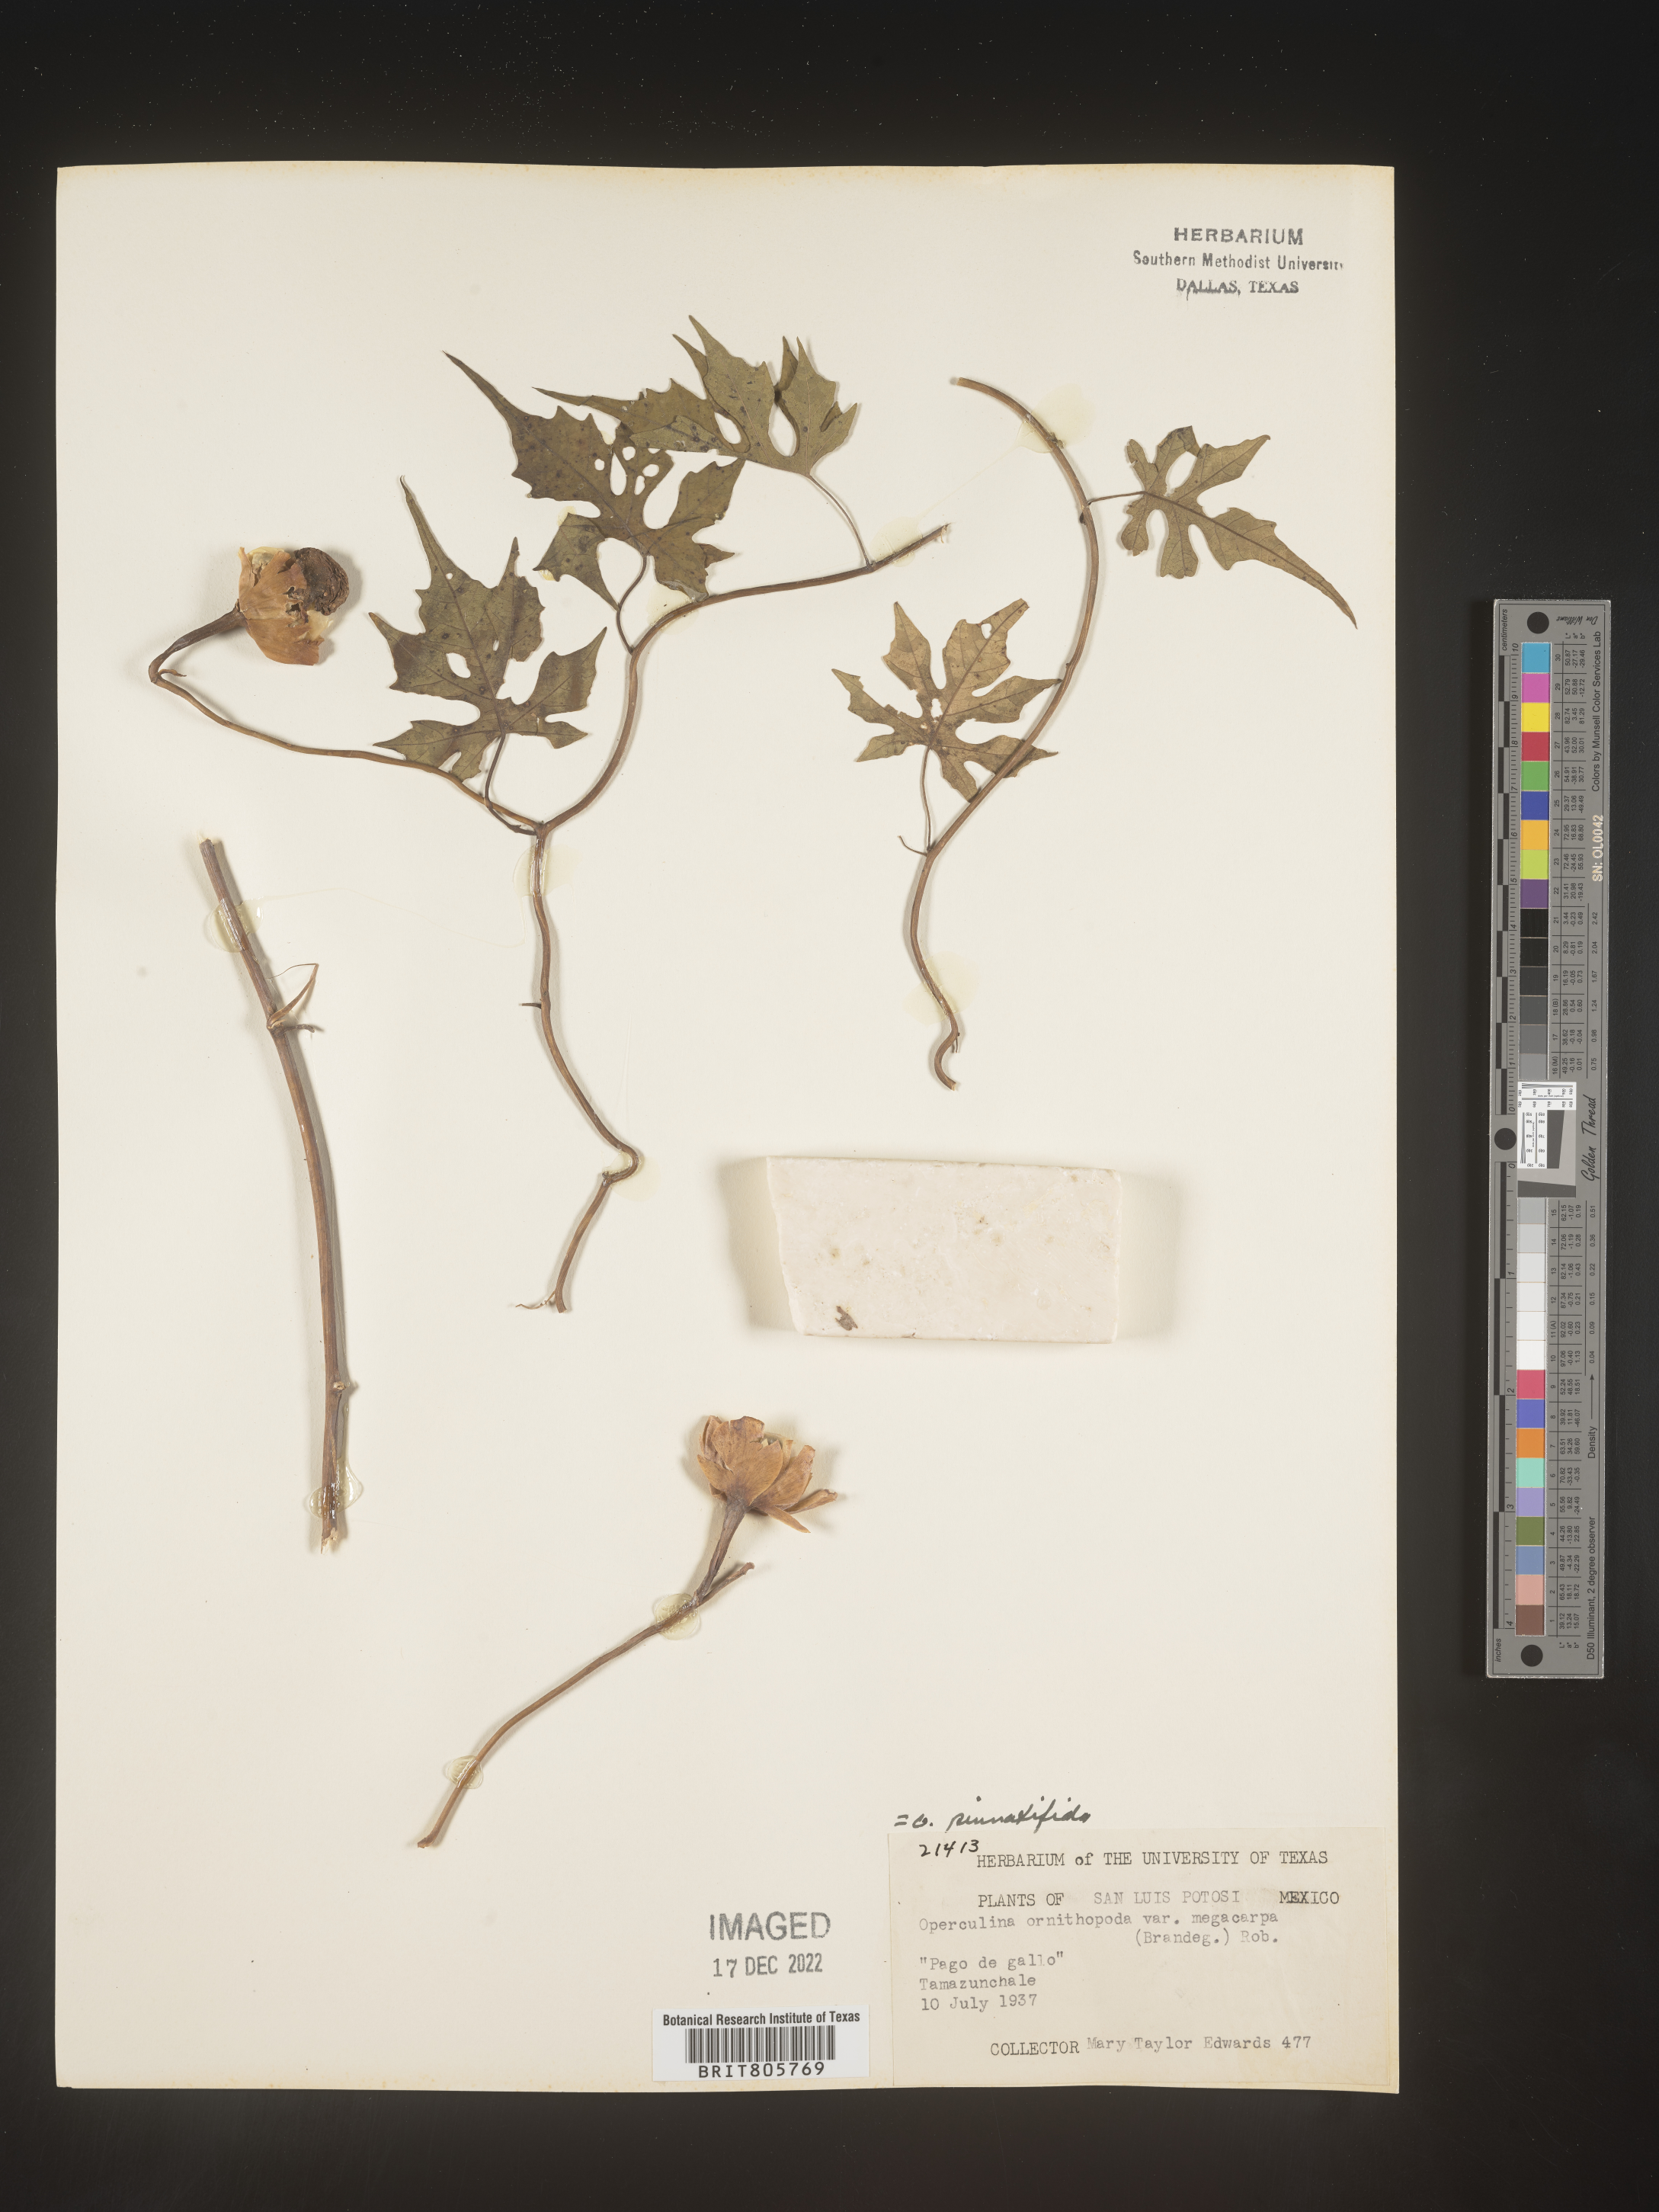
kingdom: Plantae
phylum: Tracheophyta
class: Magnoliopsida
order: Solanales
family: Convolvulaceae
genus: Operculina
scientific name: Operculina
